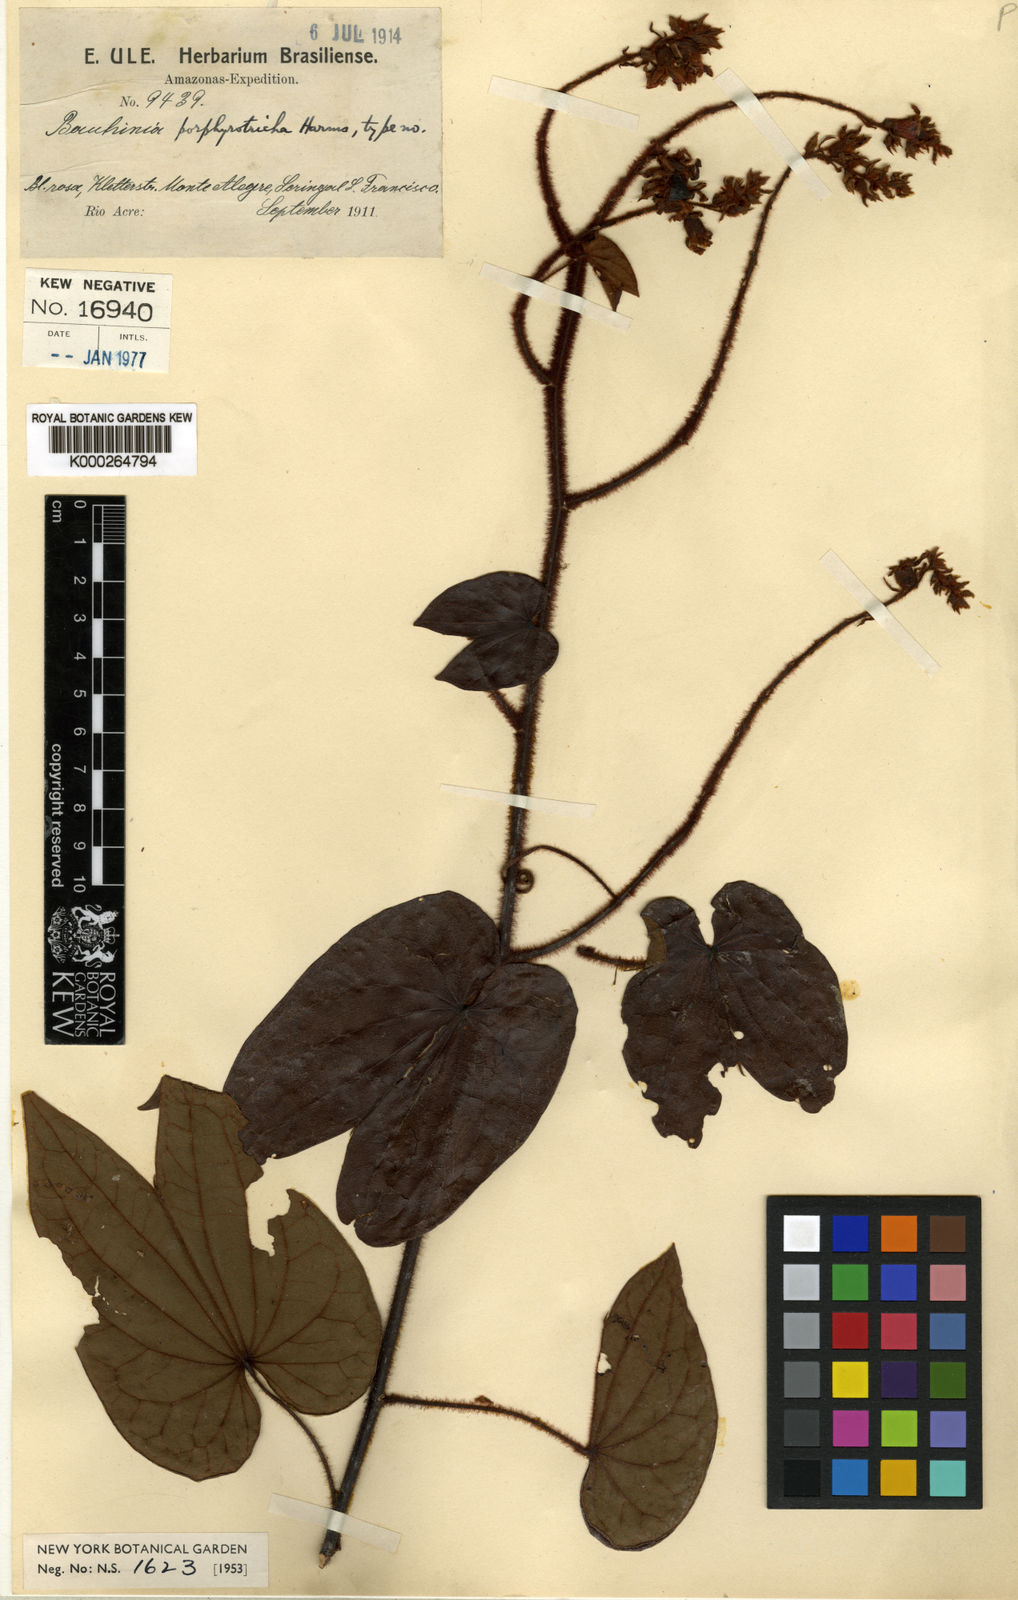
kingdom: Plantae
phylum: Tracheophyta
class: Magnoliopsida
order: Fabales
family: Fabaceae
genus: Schnella
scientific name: Schnella porphyrotricha
